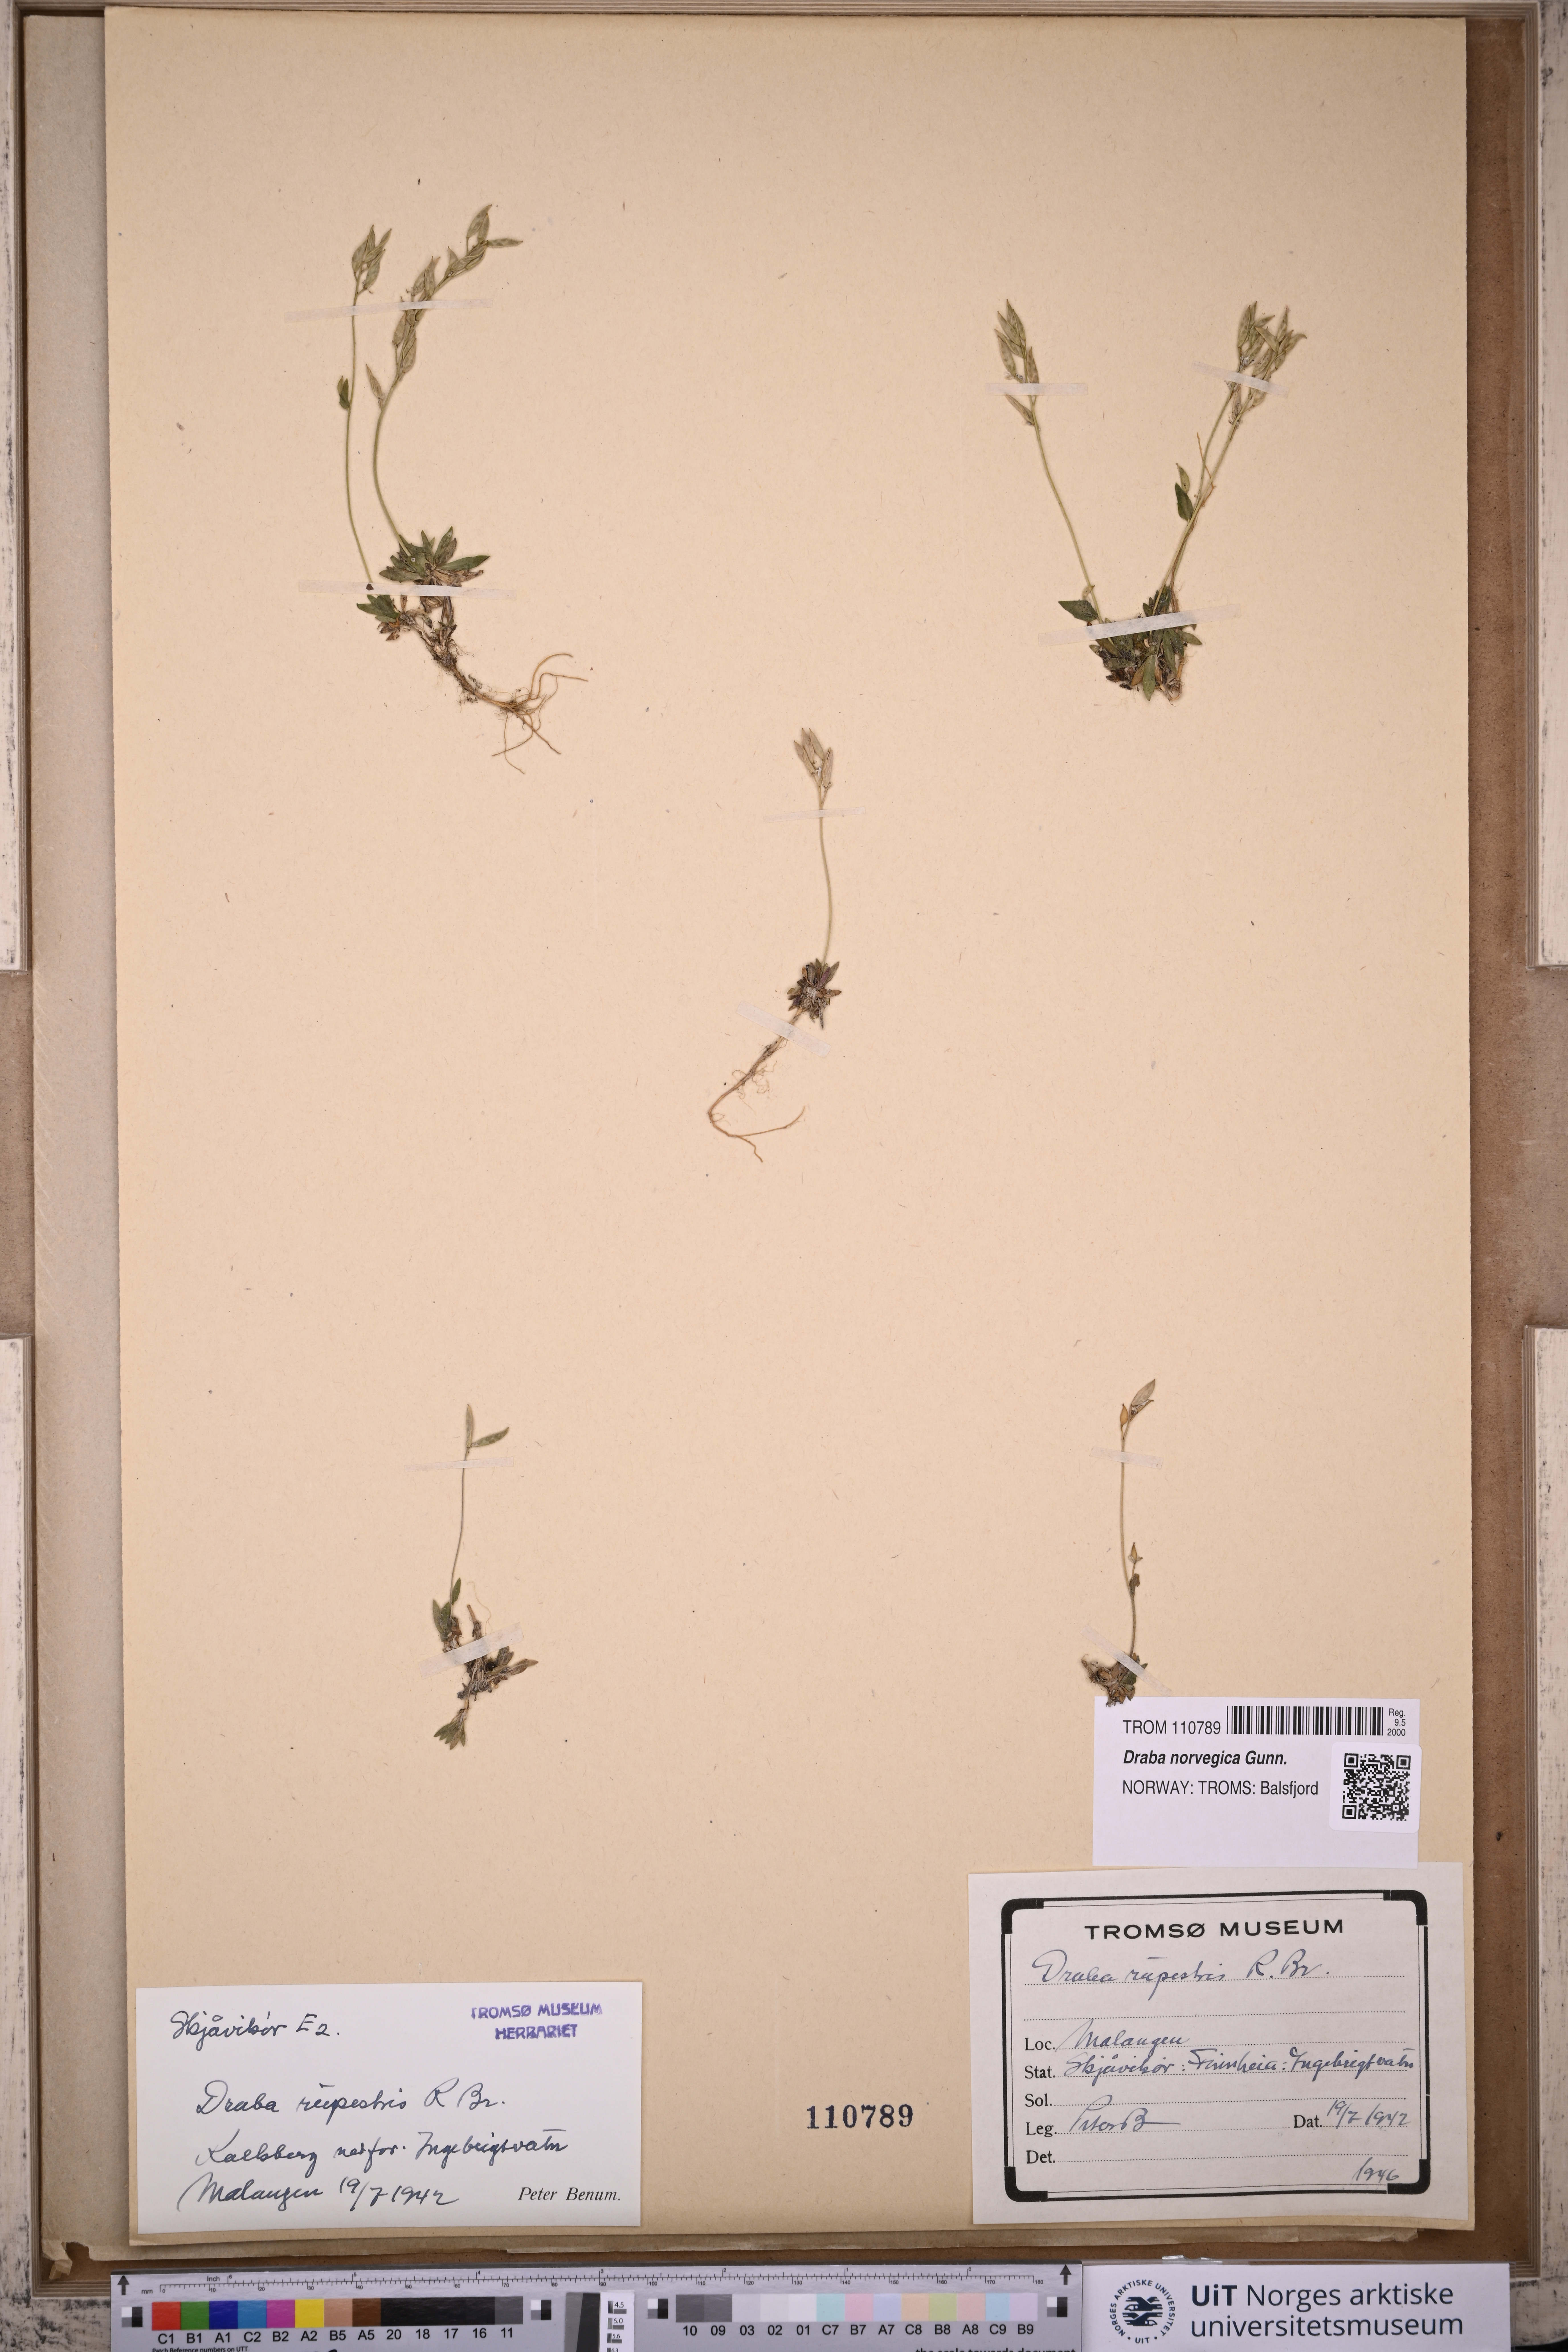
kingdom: Plantae
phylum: Tracheophyta
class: Magnoliopsida
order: Brassicales
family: Brassicaceae
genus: Draba
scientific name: Draba norvegica
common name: Rock whitlowgrass
